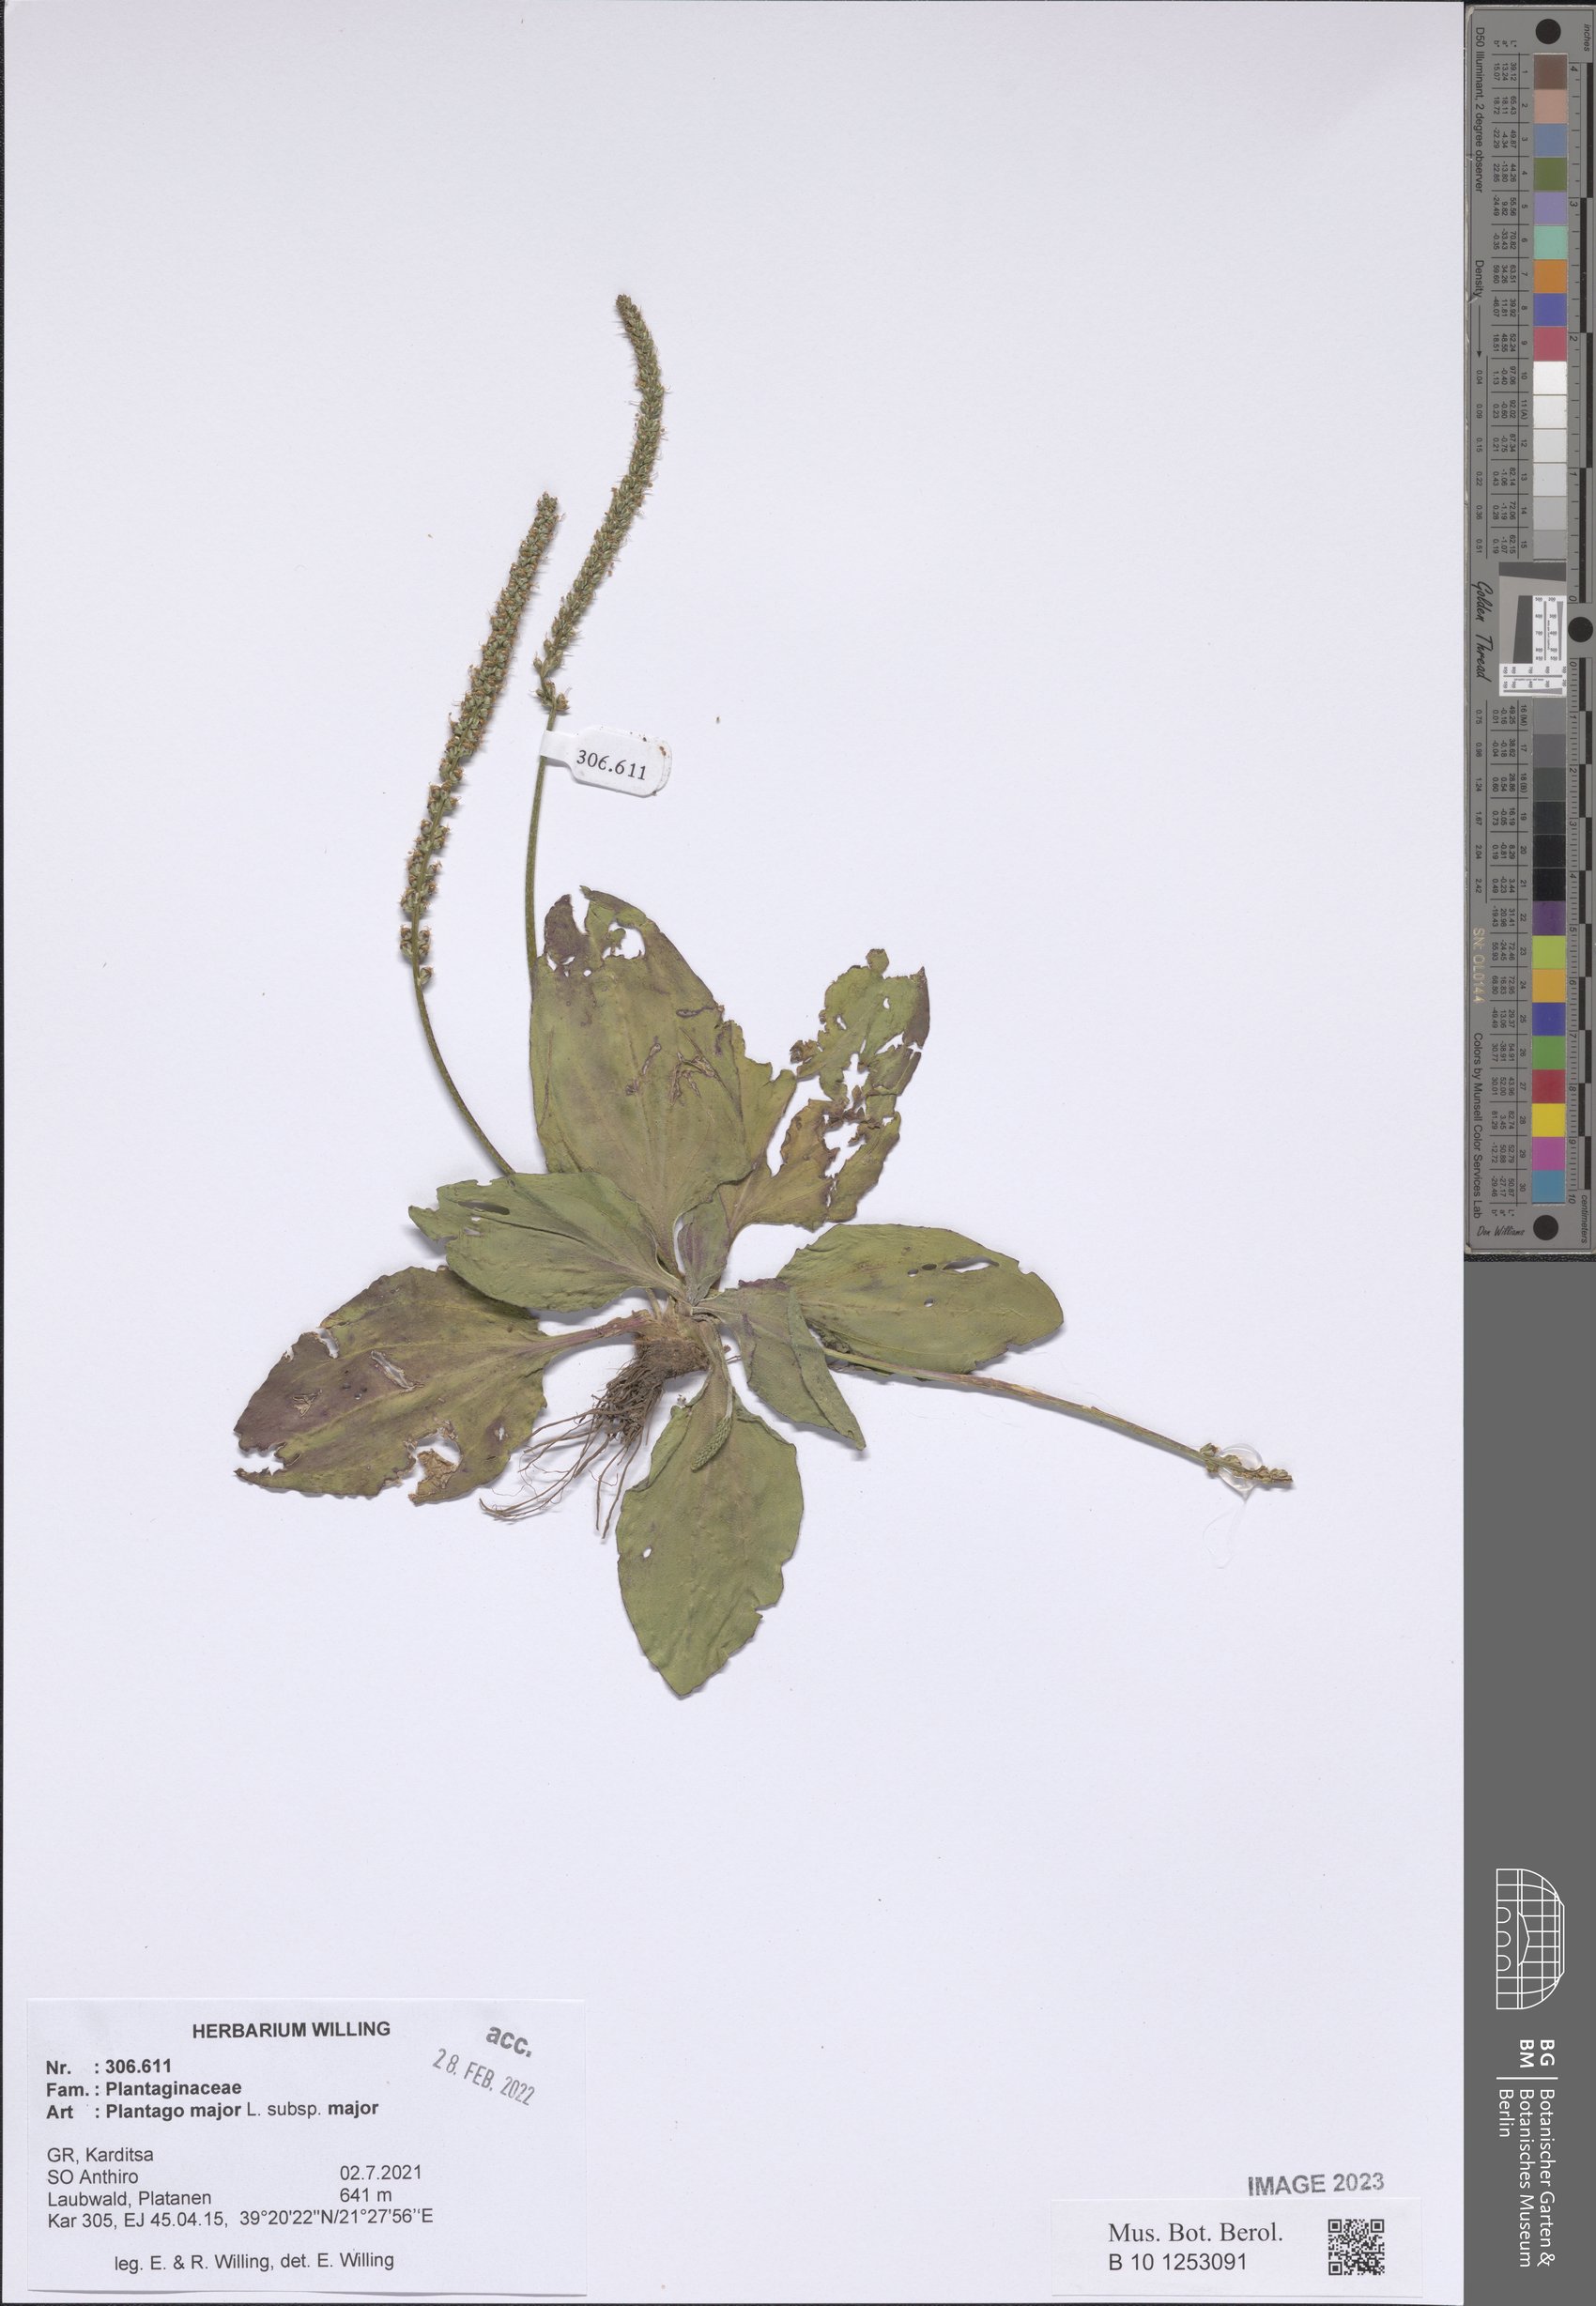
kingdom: Plantae
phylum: Tracheophyta
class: Magnoliopsida
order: Lamiales
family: Plantaginaceae
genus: Plantago
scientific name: Plantago major
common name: Common plantain
